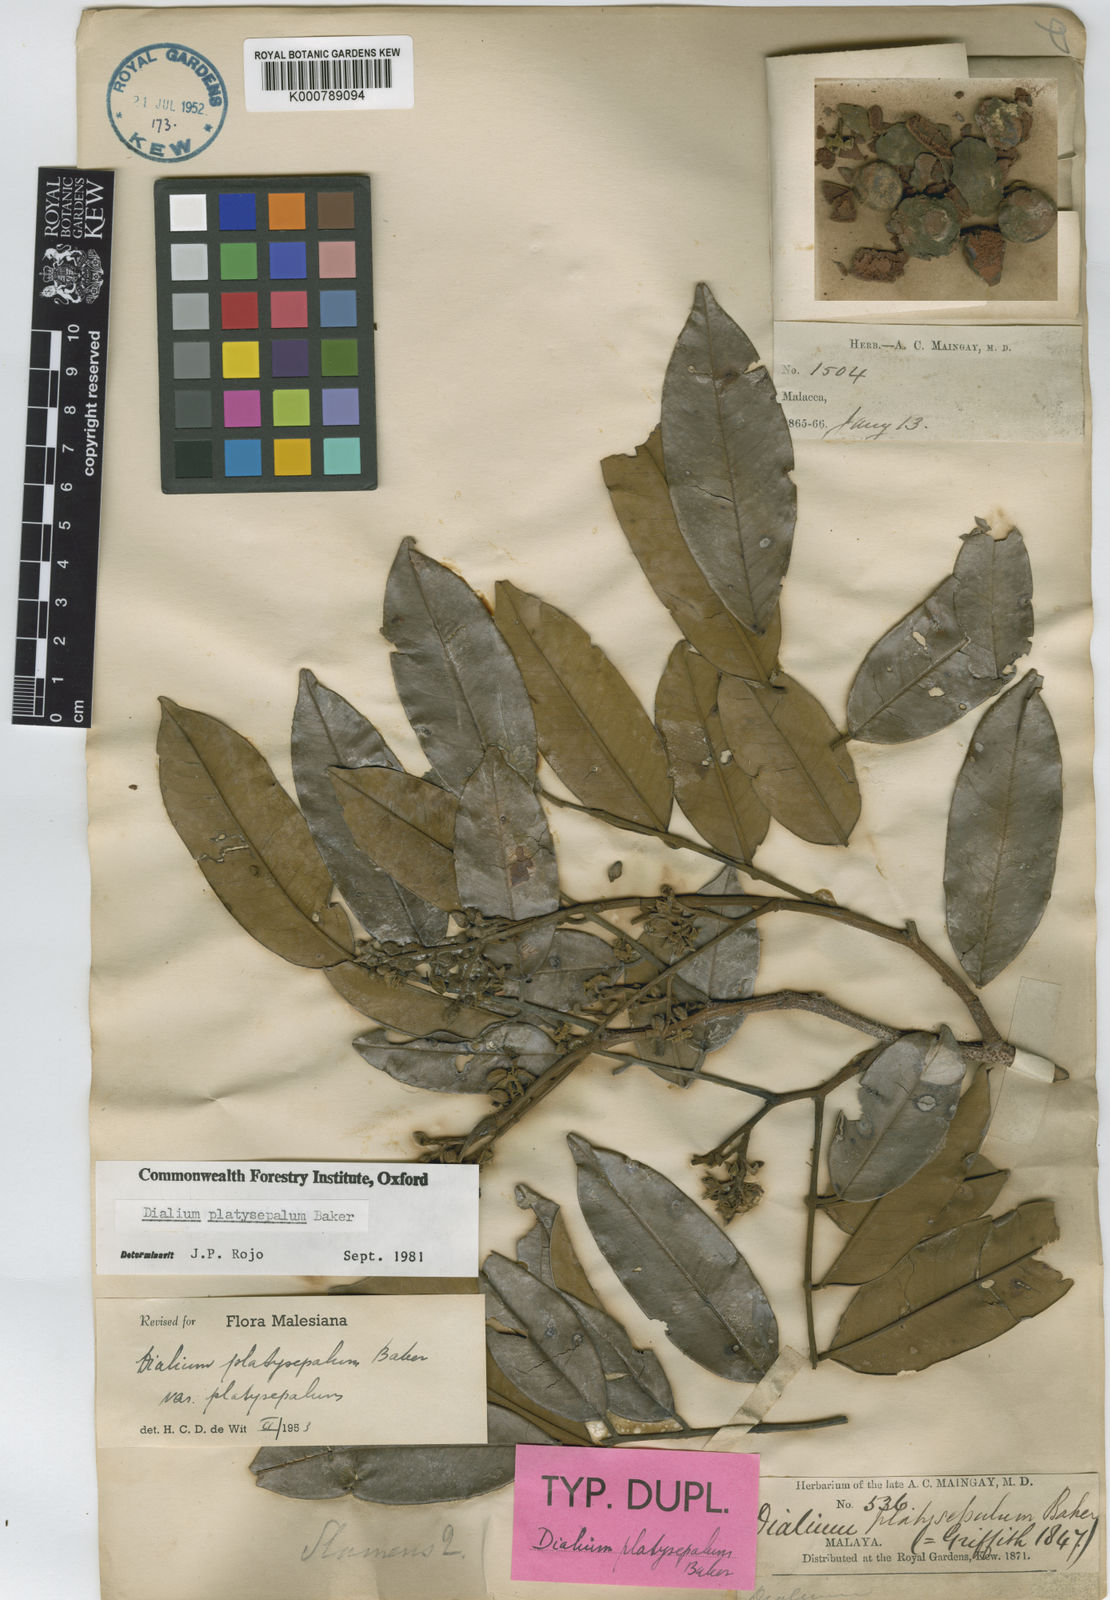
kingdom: Plantae
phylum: Tracheophyta
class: Magnoliopsida
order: Fabales
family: Fabaceae
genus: Dialium
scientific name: Dialium platysepalum
